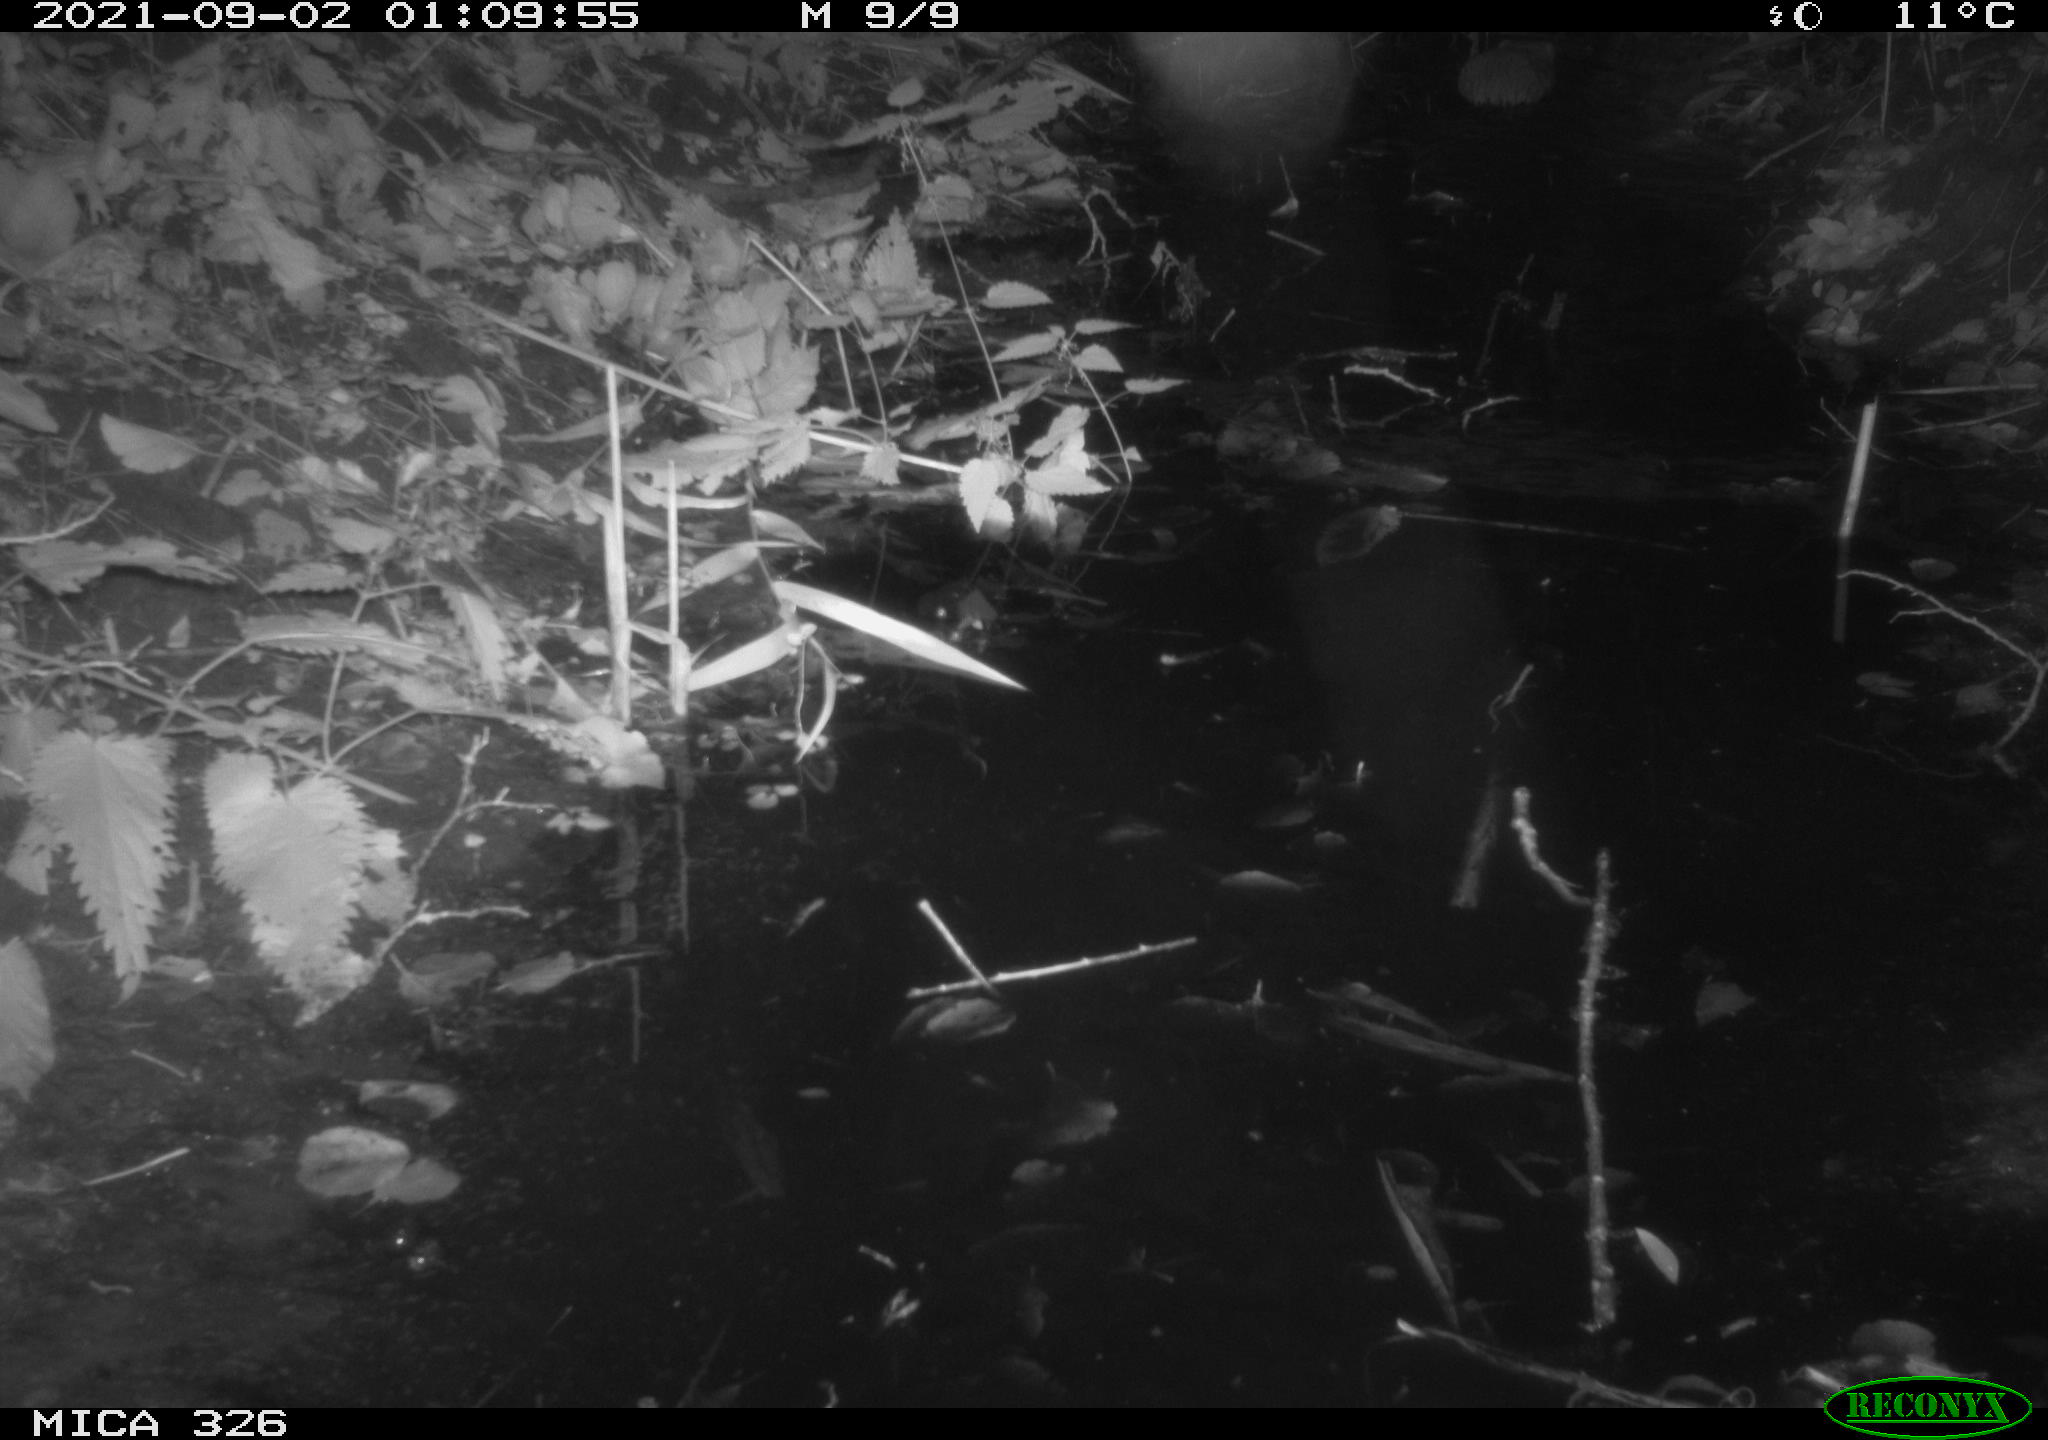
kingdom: Animalia
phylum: Chordata
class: Mammalia
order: Rodentia
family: Cricetidae
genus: Ondatra
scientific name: Ondatra zibethicus
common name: Muskrat
